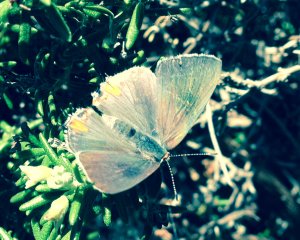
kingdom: Animalia
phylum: Arthropoda
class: Insecta
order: Lepidoptera
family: Lycaenidae
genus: Strymon
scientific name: Strymon melinus
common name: Gray Hairstreak
